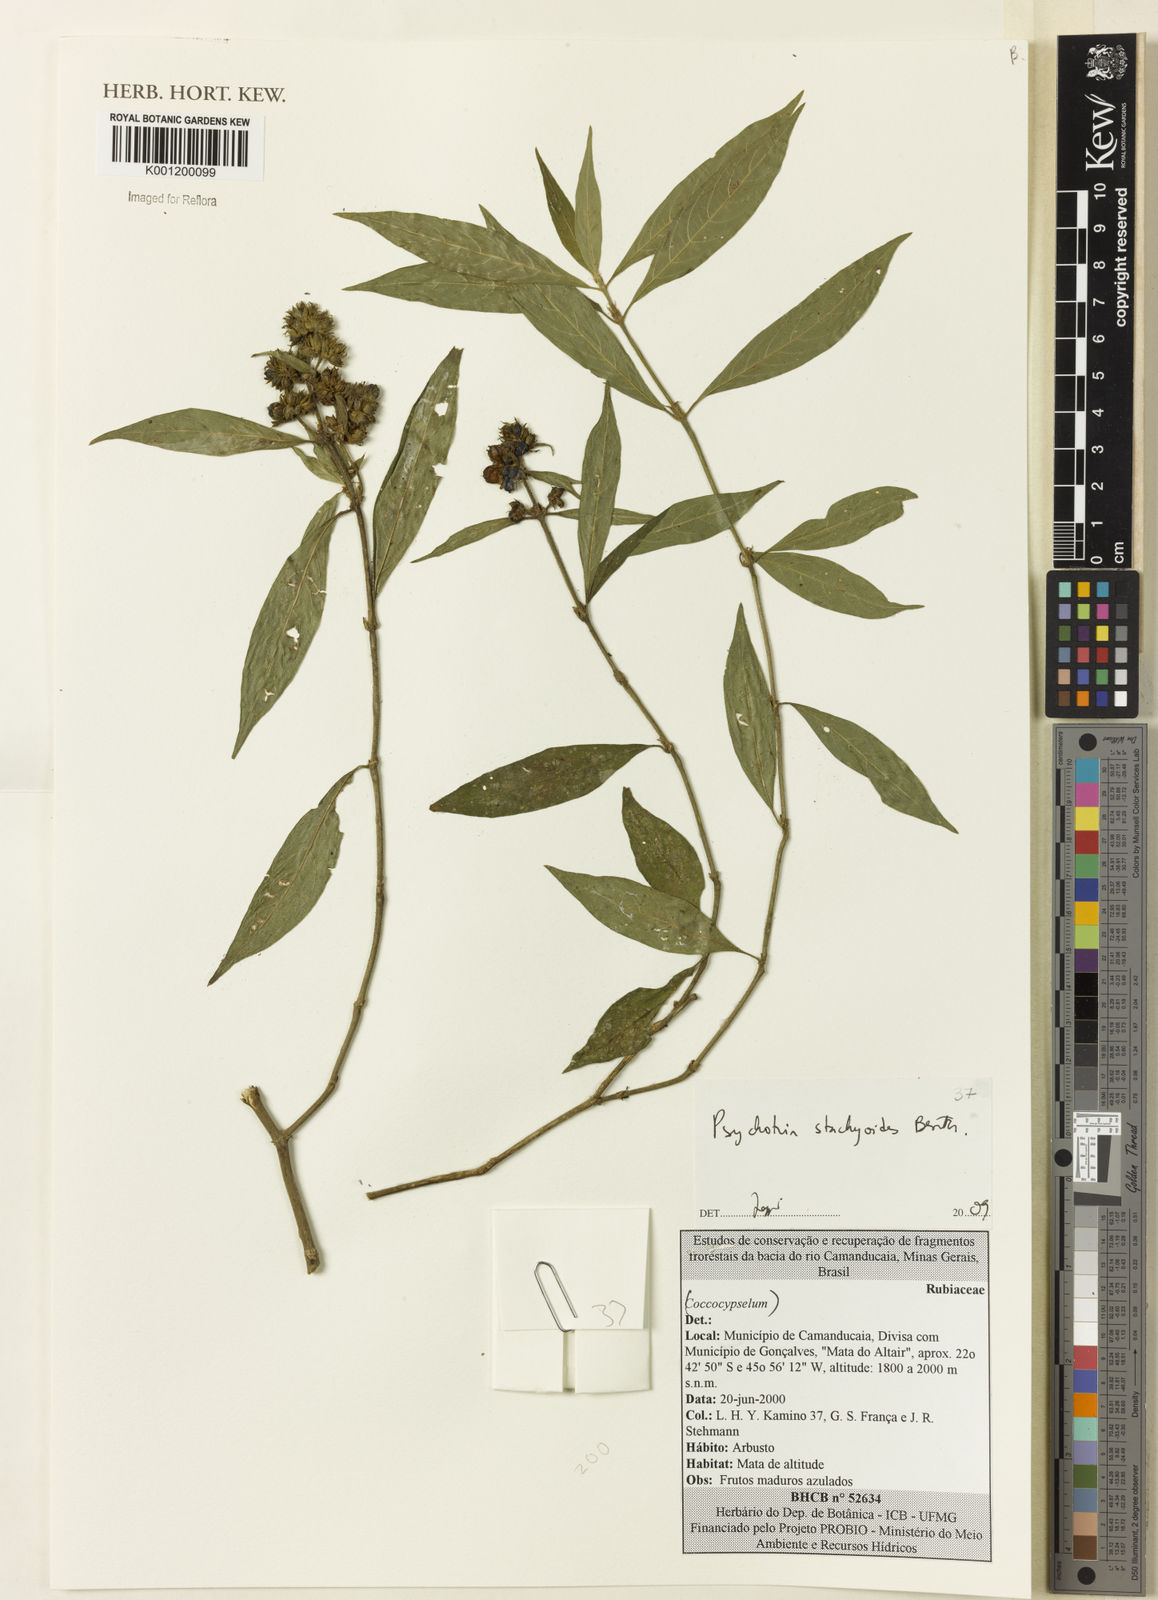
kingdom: Plantae
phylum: Tracheophyta
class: Magnoliopsida
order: Gentianales
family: Rubiaceae
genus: Psychotria
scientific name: Psychotria stachyoides
